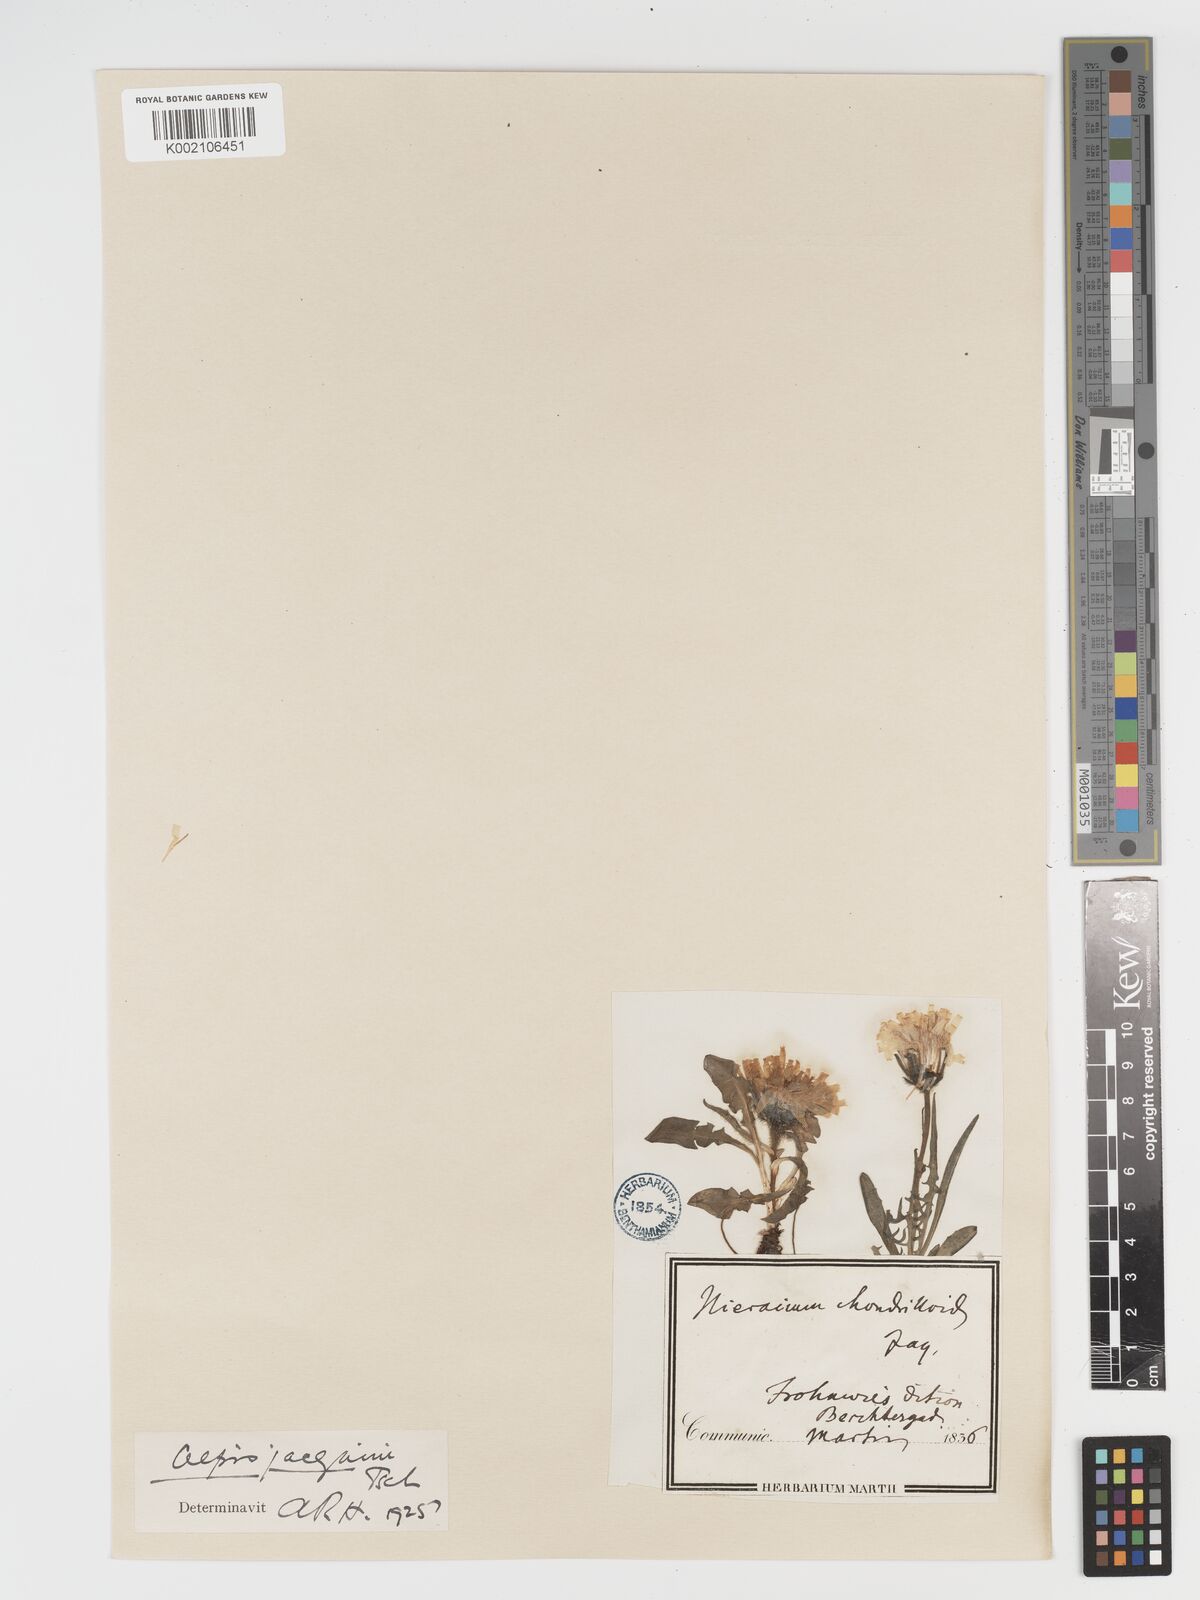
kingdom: Plantae
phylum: Tracheophyta
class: Magnoliopsida
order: Asterales
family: Asteraceae
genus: Crepis
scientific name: Crepis jacquinii
